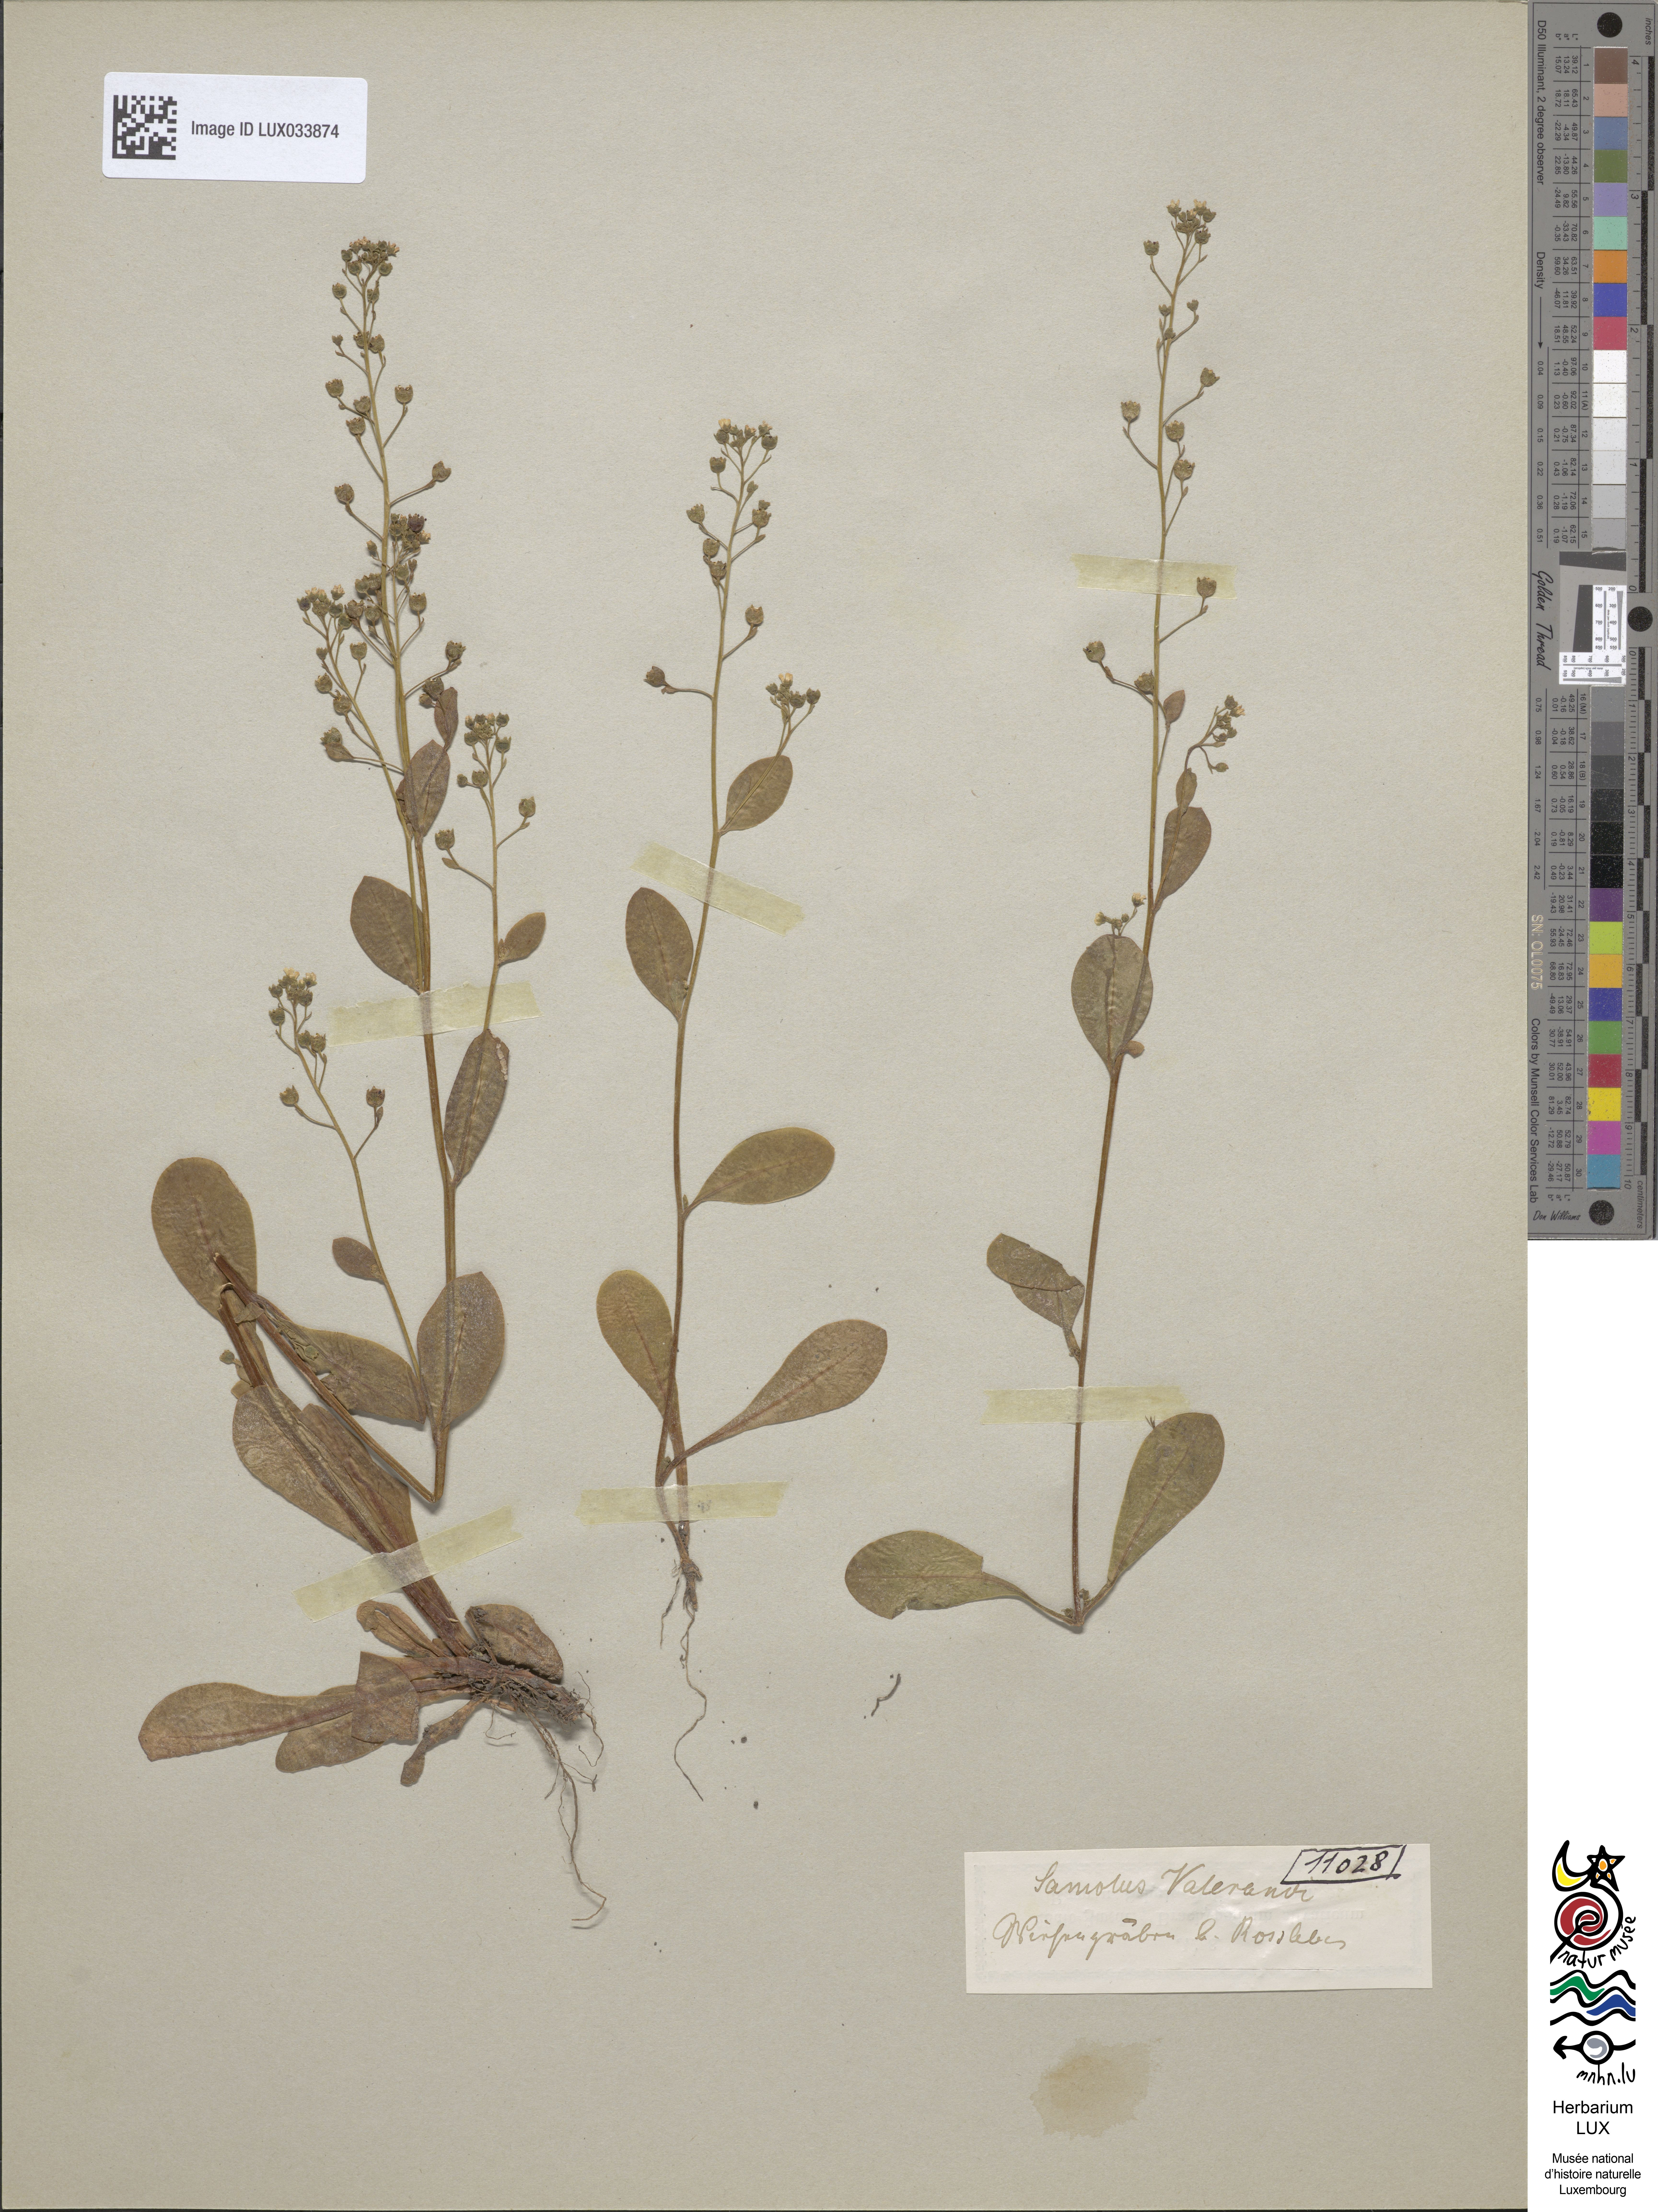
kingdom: Plantae
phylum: Tracheophyta
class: Magnoliopsida
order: Ericales
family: Primulaceae
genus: Samolus
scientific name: Samolus valerandi
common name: Brookweed
